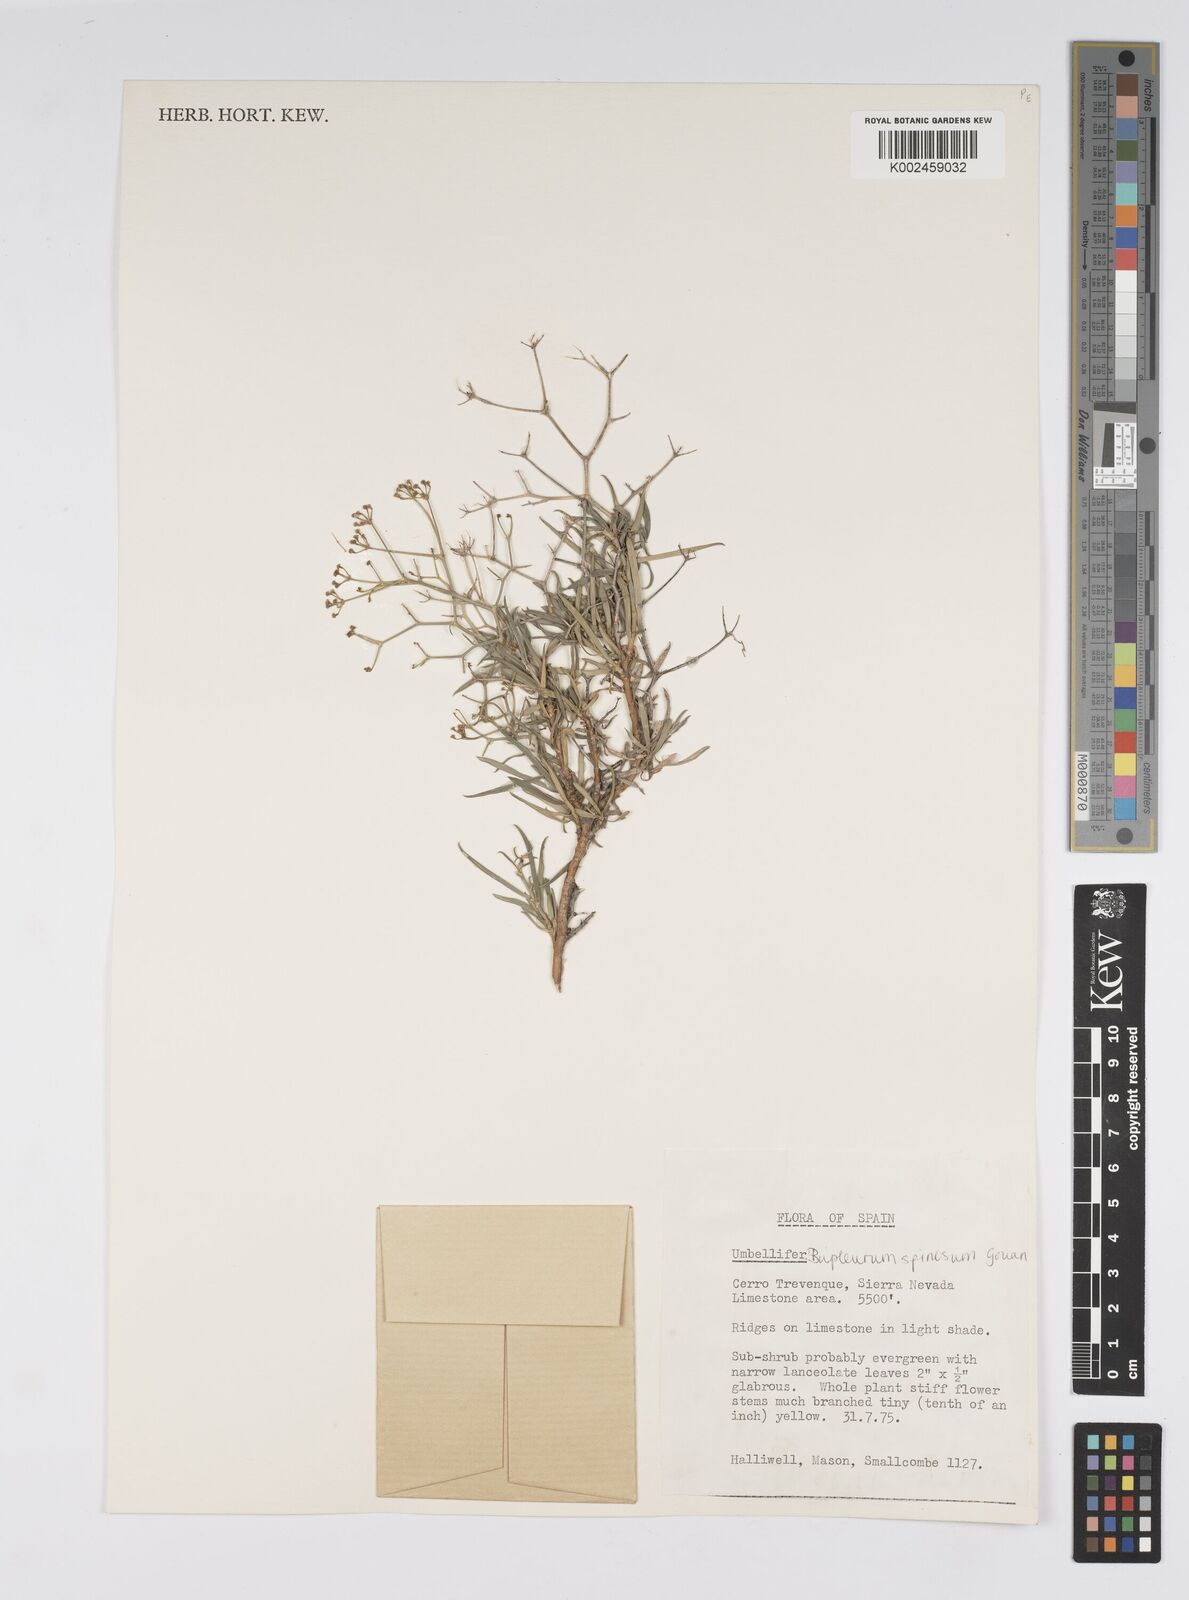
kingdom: Plantae
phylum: Tracheophyta
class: Magnoliopsida
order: Apiales
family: Apiaceae
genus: Bupleurum
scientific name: Bupleurum fruticescens
